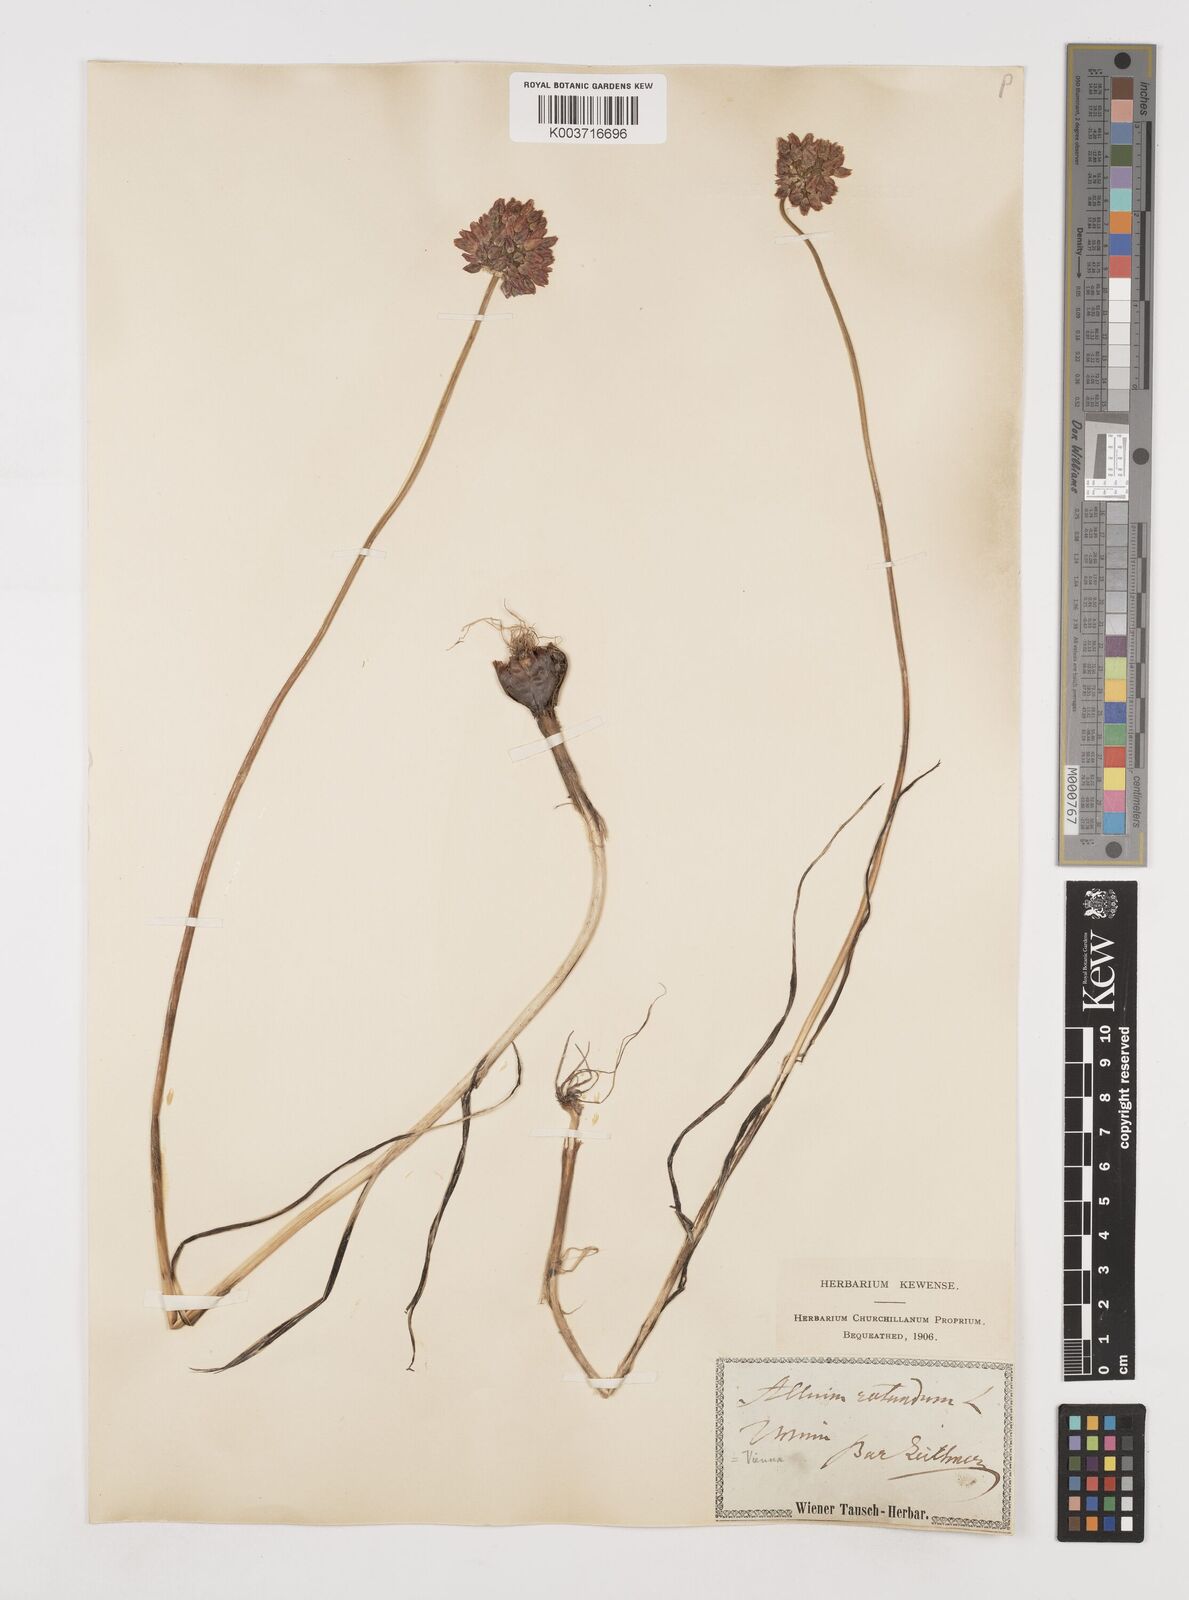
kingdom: Plantae
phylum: Tracheophyta
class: Liliopsida
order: Asparagales
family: Amaryllidaceae
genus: Allium
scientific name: Allium rotundum
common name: Sand leek
